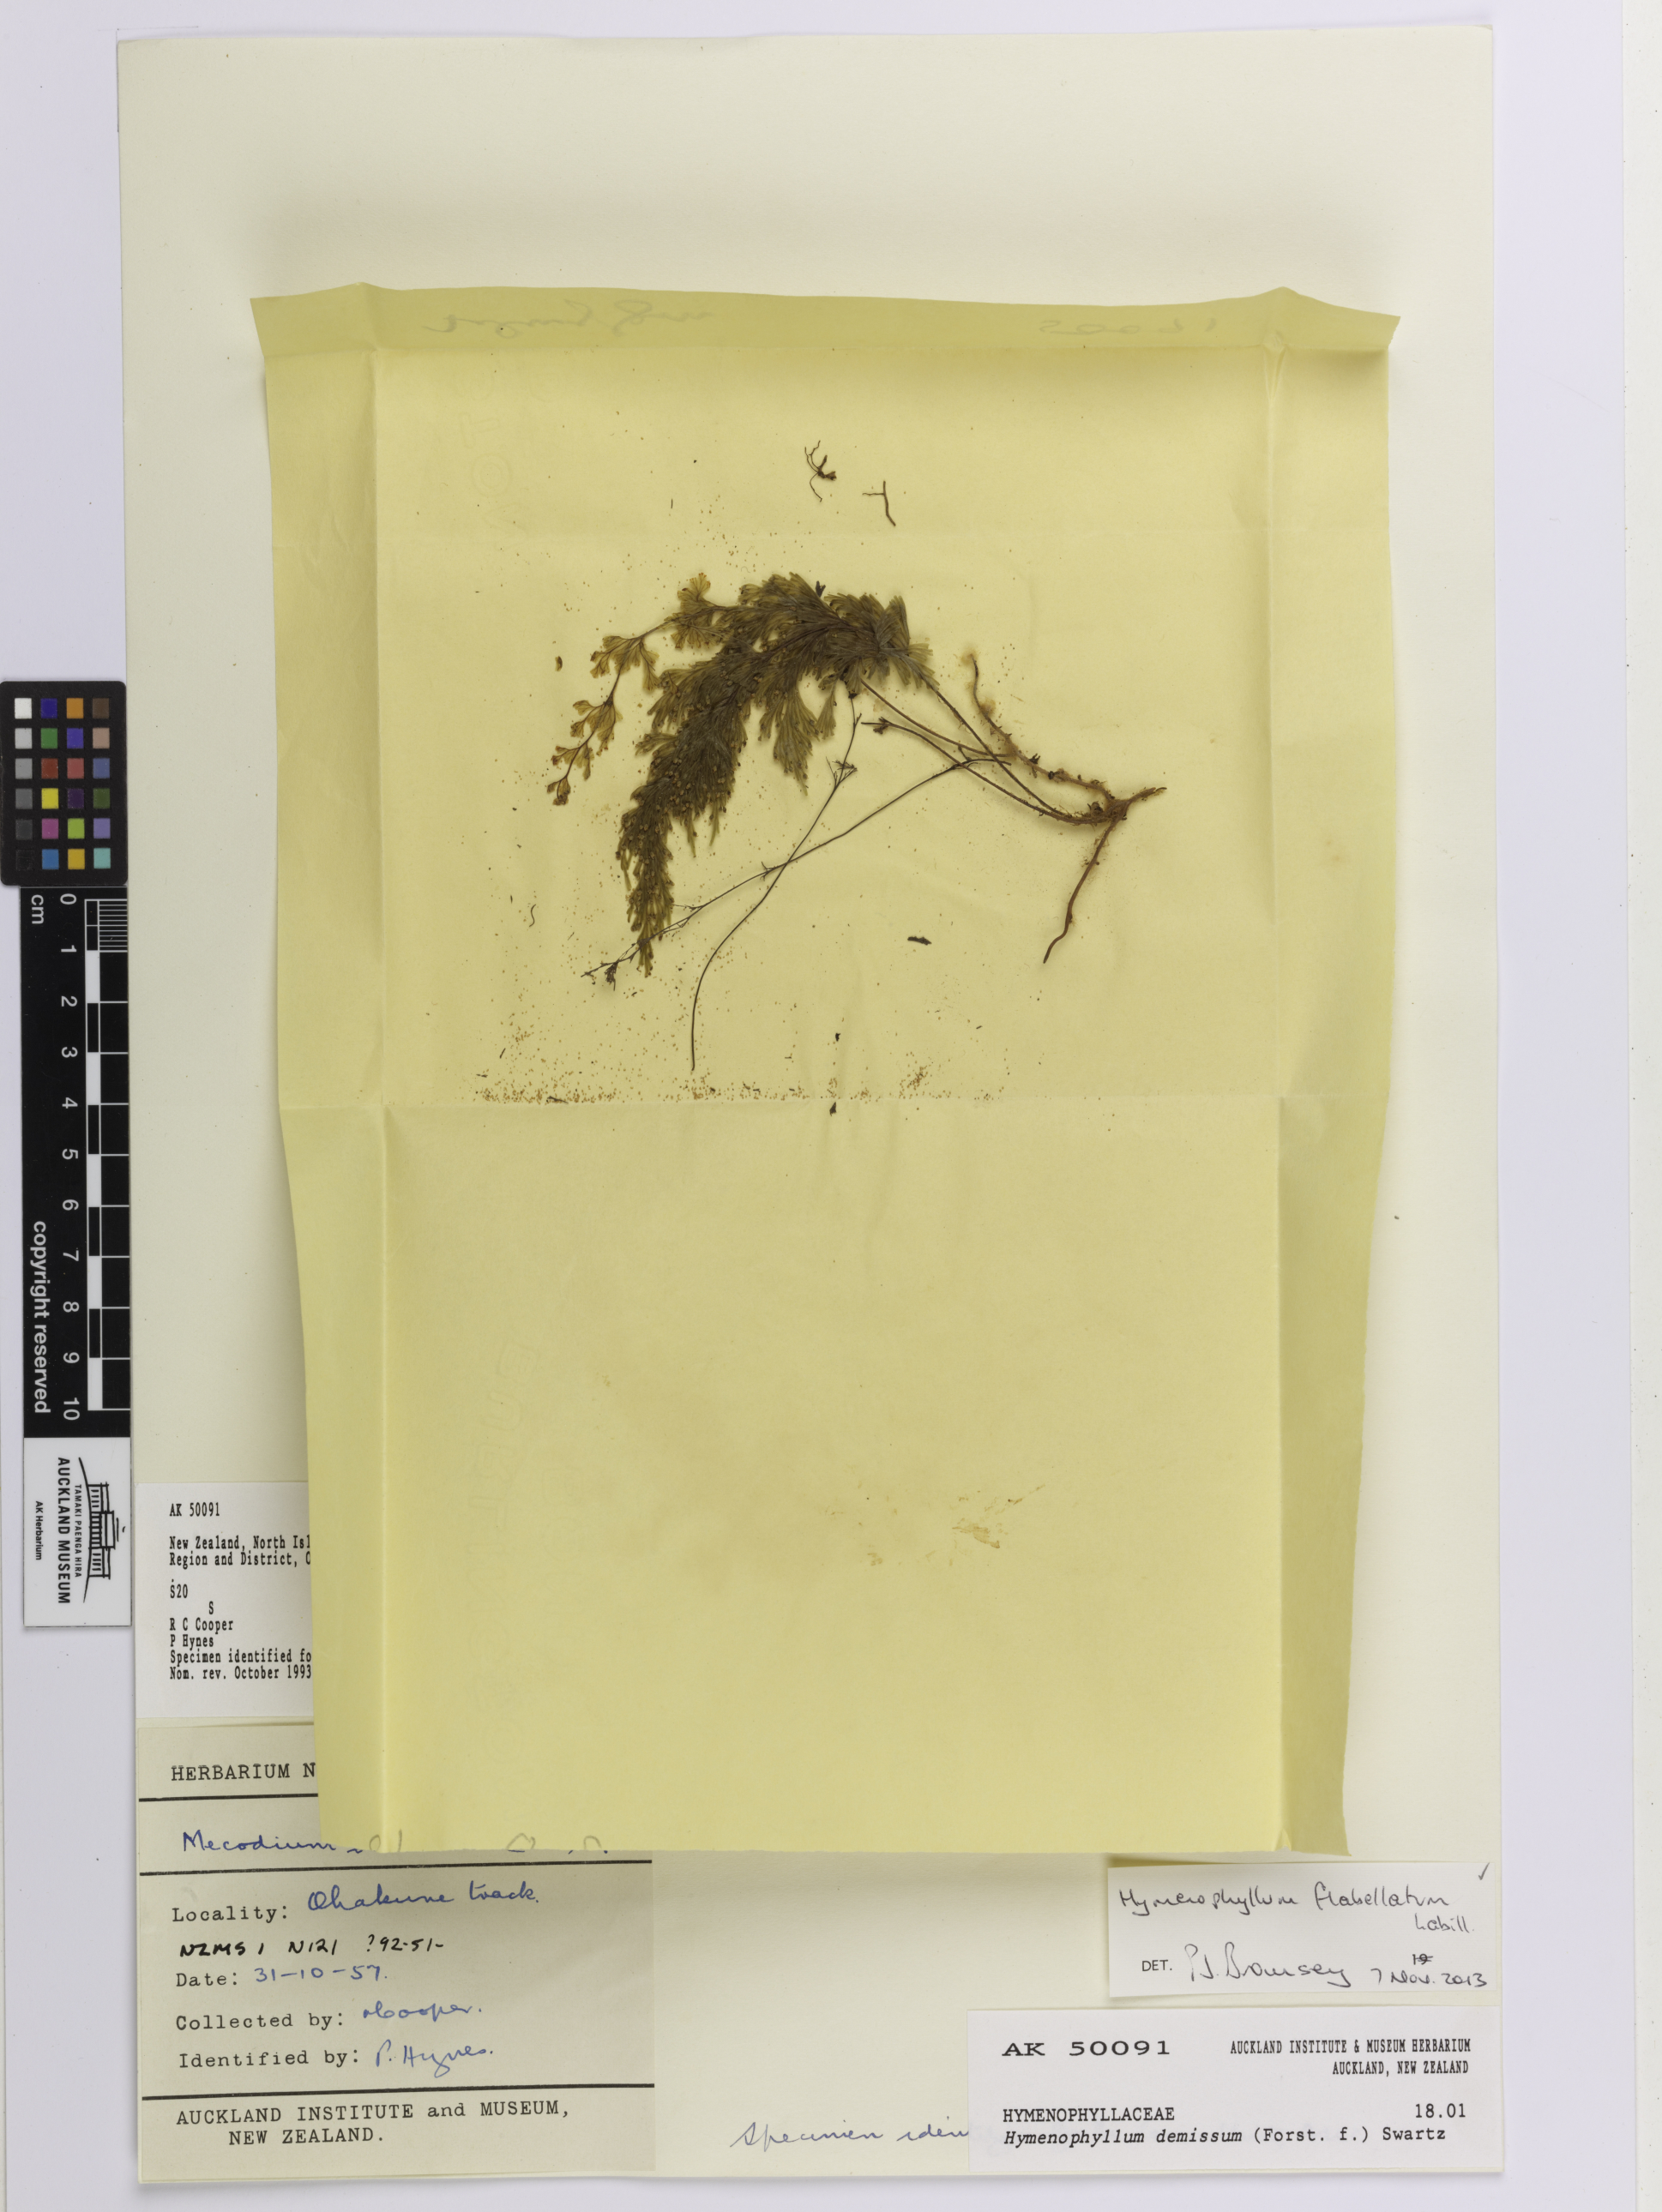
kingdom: Plantae
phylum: Tracheophyta
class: Polypodiopsida
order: Hymenophyllales
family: Hymenophyllaceae
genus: Hymenophyllum
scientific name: Hymenophyllum flabellatum
